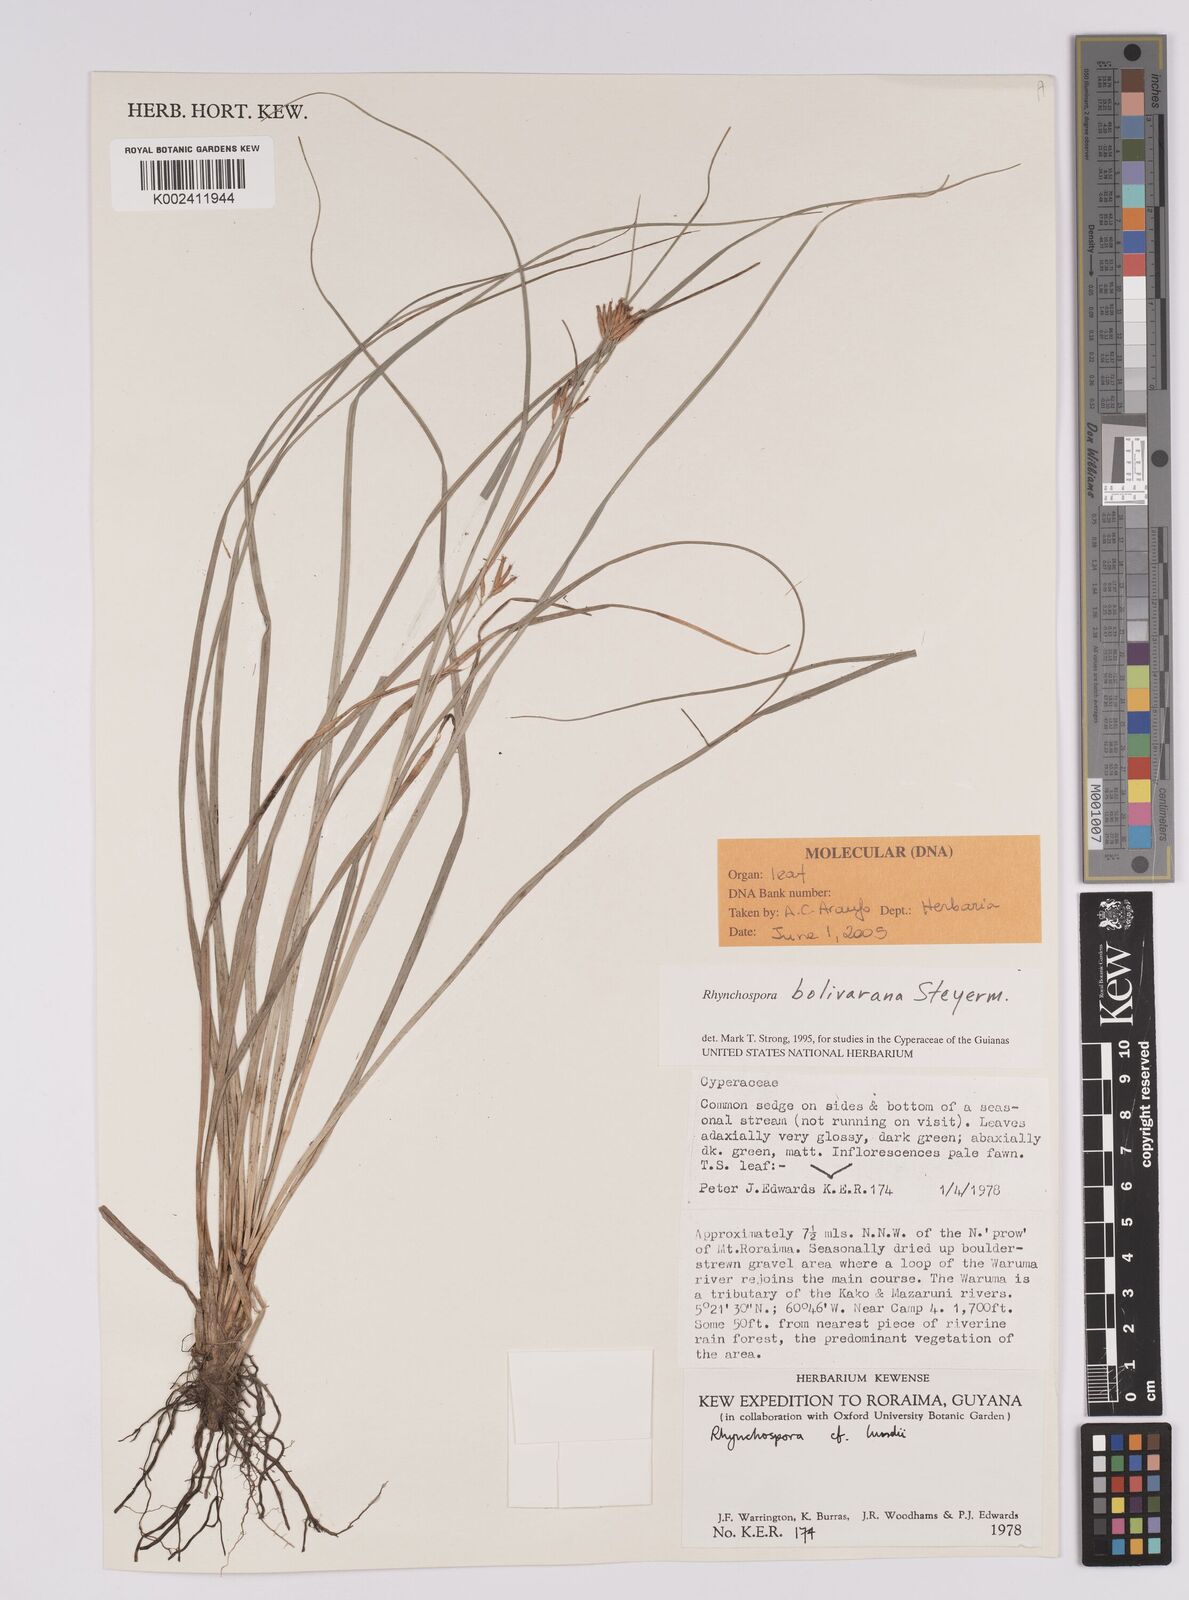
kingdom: Plantae
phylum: Tracheophyta
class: Liliopsida
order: Poales
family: Cyperaceae
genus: Rhynchospora
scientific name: Rhynchospora bolivarana
